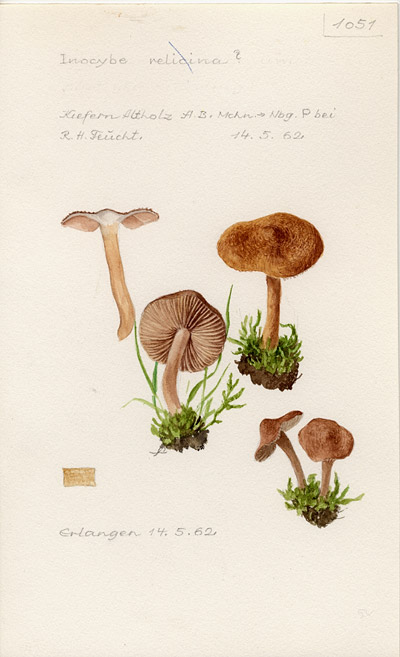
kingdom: Fungi
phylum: Basidiomycota
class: Agaricomycetes
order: Agaricales
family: Inocybaceae
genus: Inocybe
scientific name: Inocybe relicina
